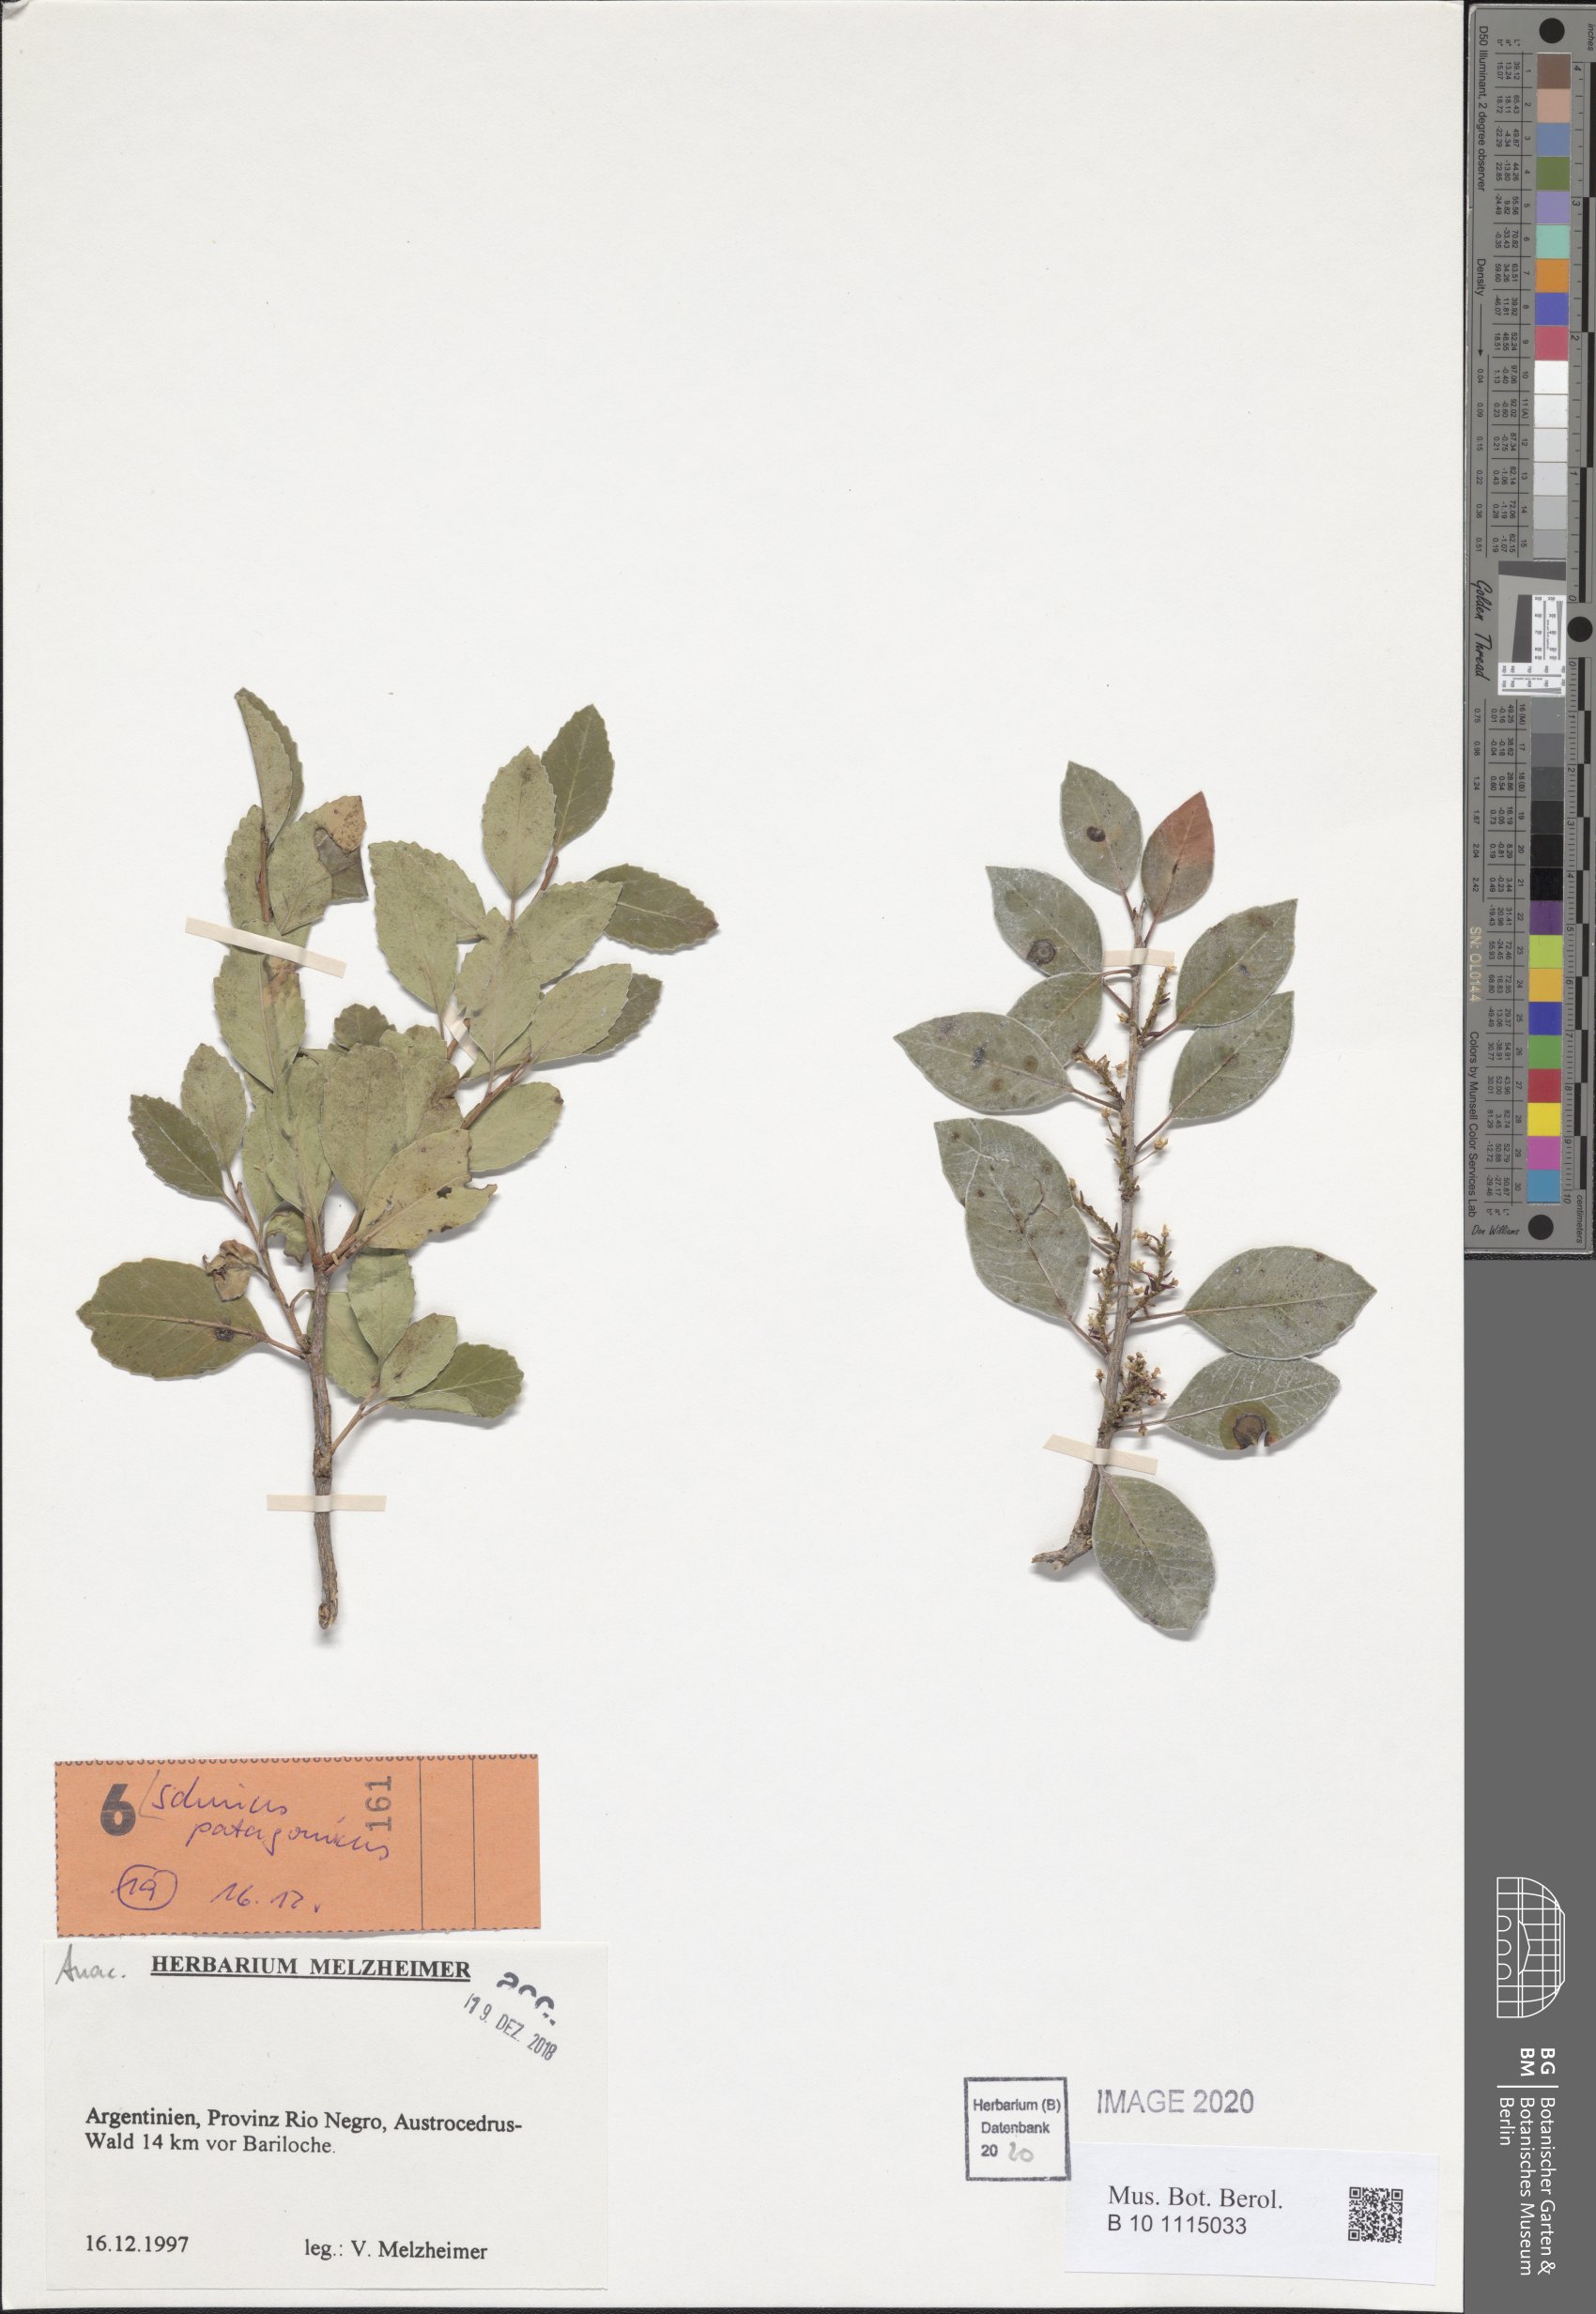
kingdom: Plantae
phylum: Tracheophyta
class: Magnoliopsida
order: Sapindales
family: Anacardiaceae
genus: Schinus
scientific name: Schinus patagonicus
